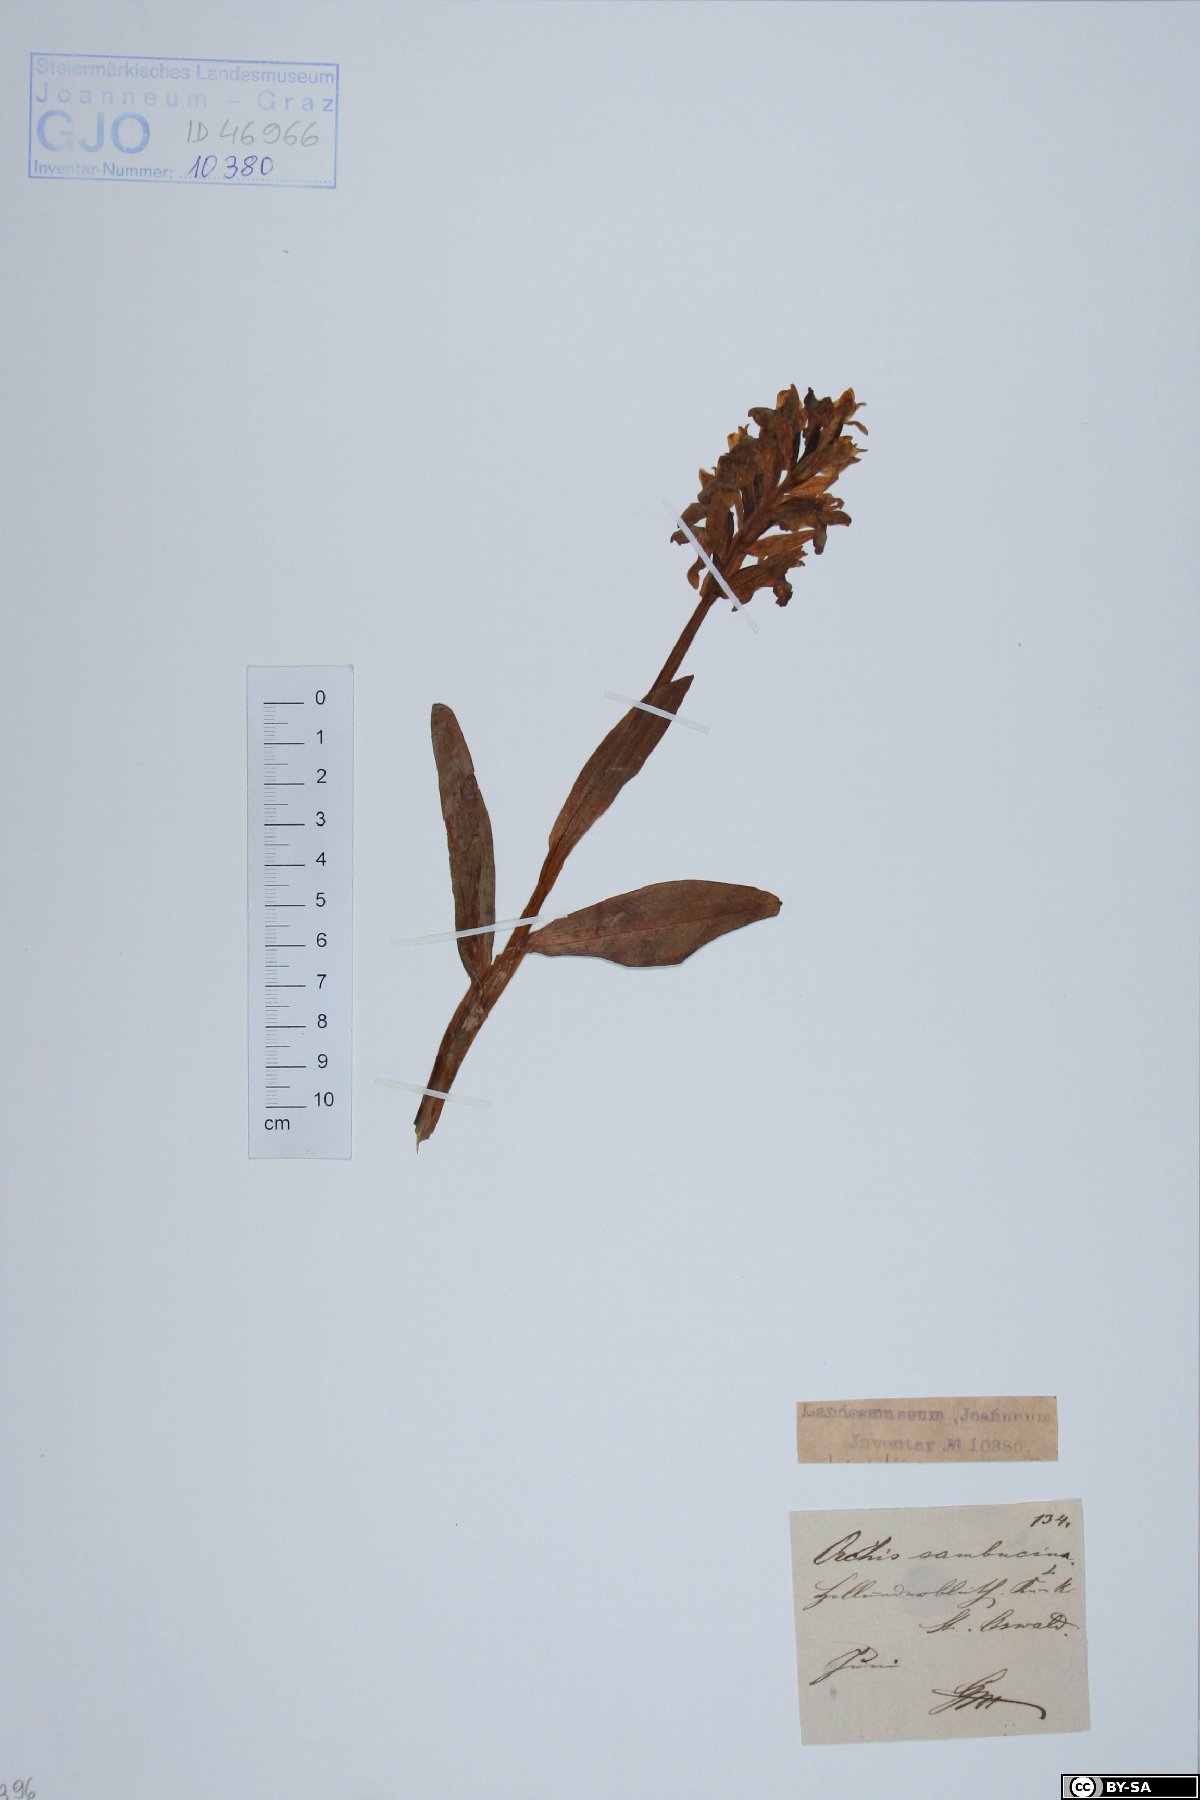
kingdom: Plantae
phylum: Tracheophyta
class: Liliopsida
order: Asparagales
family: Orchidaceae
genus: Dactylorhiza
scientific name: Dactylorhiza sambucina
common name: Elder-flowered orchid
